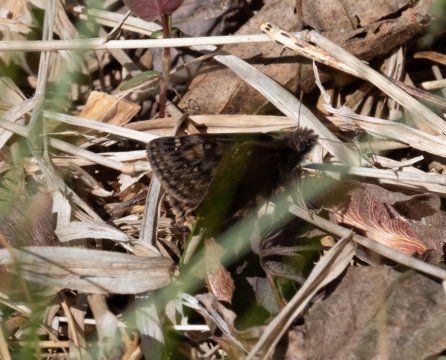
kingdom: Animalia
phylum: Arthropoda
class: Insecta
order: Lepidoptera
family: Hesperiidae
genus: Gesta
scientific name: Gesta
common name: Juvenal's Duskywing
